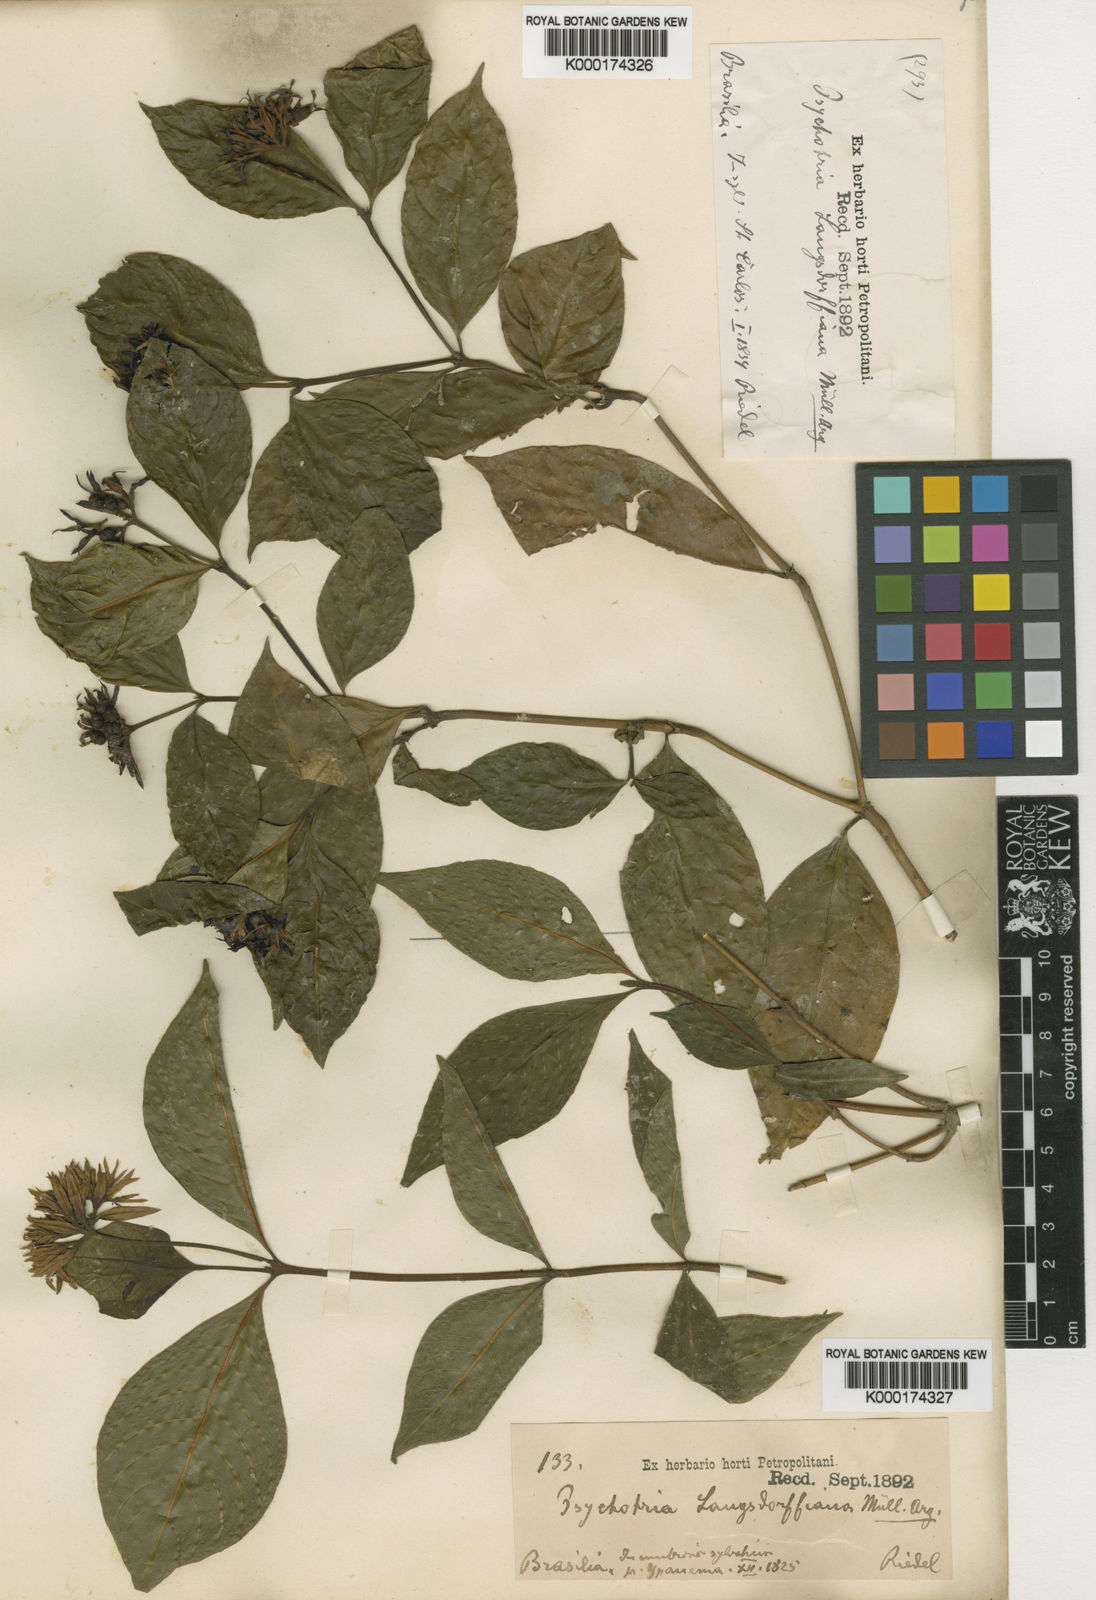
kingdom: Plantae
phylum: Tracheophyta
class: Magnoliopsida
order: Gentianales
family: Rubiaceae
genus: Palicourea
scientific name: Palicourea justiciifolia
